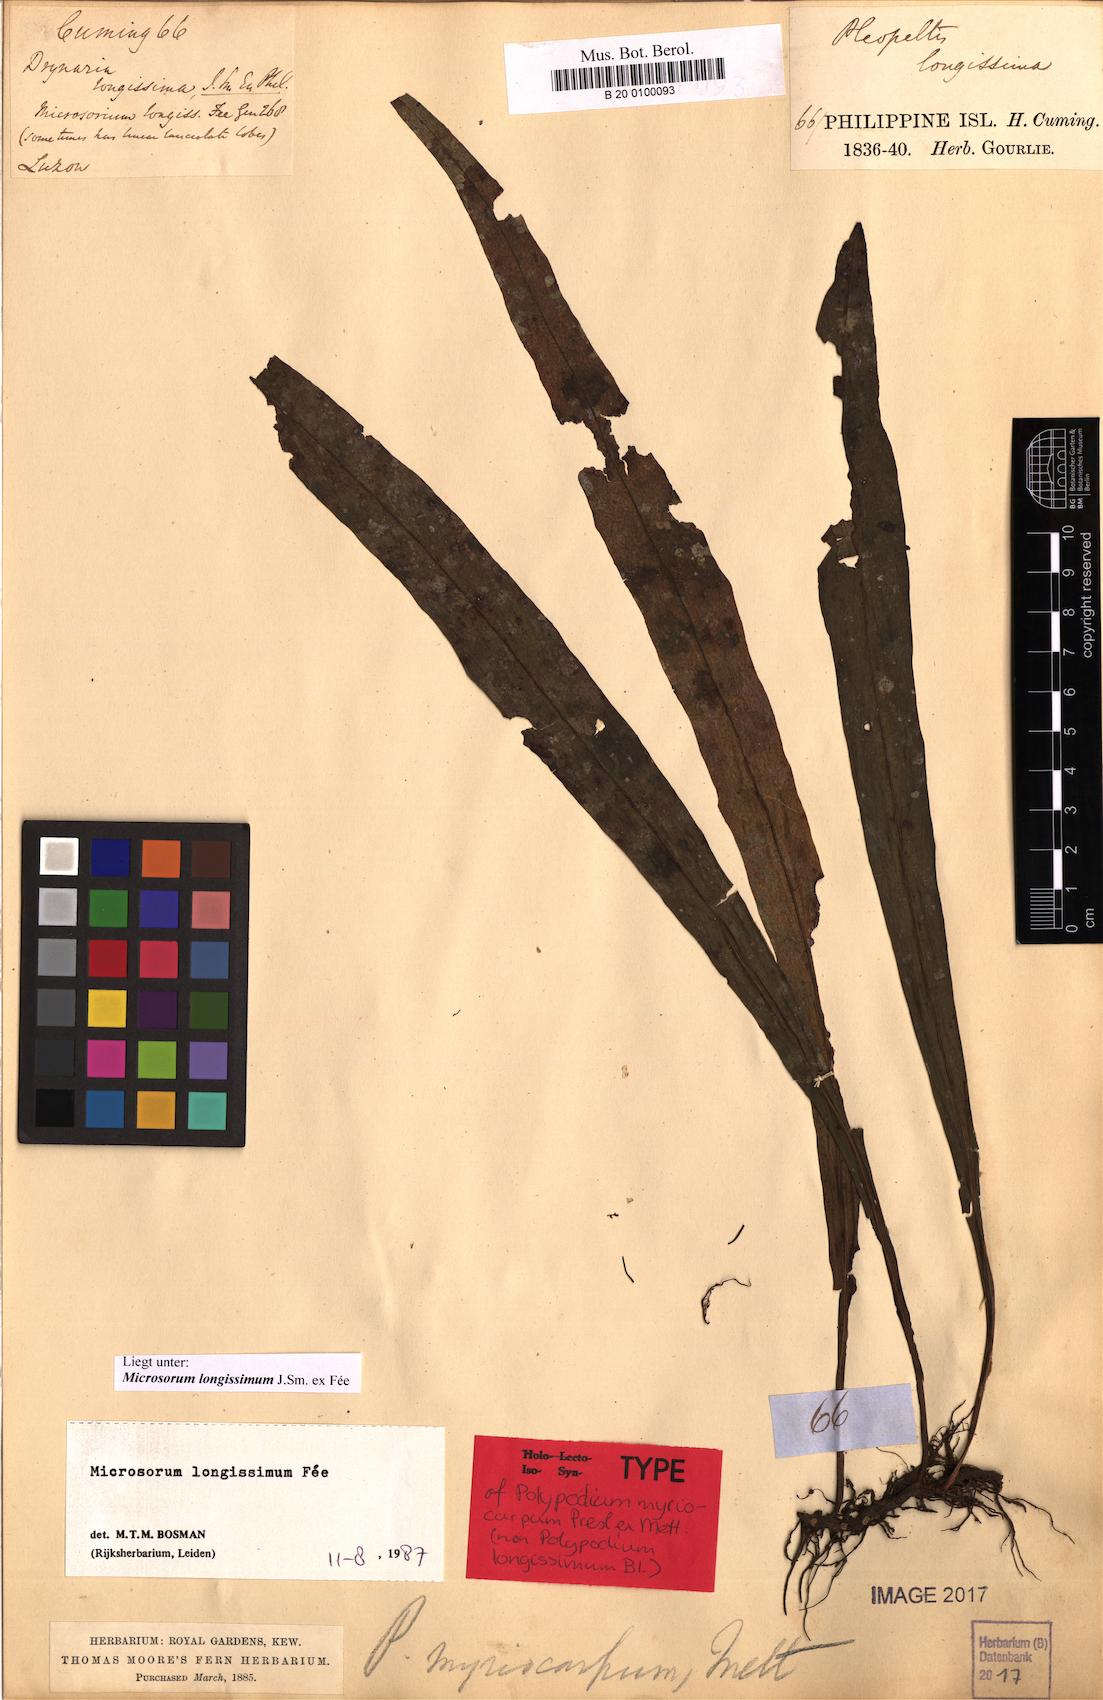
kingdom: Plantae
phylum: Tracheophyta
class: Polypodiopsida
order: Polypodiales
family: Polypodiaceae
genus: Microsorum
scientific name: Microsorum longissimum
